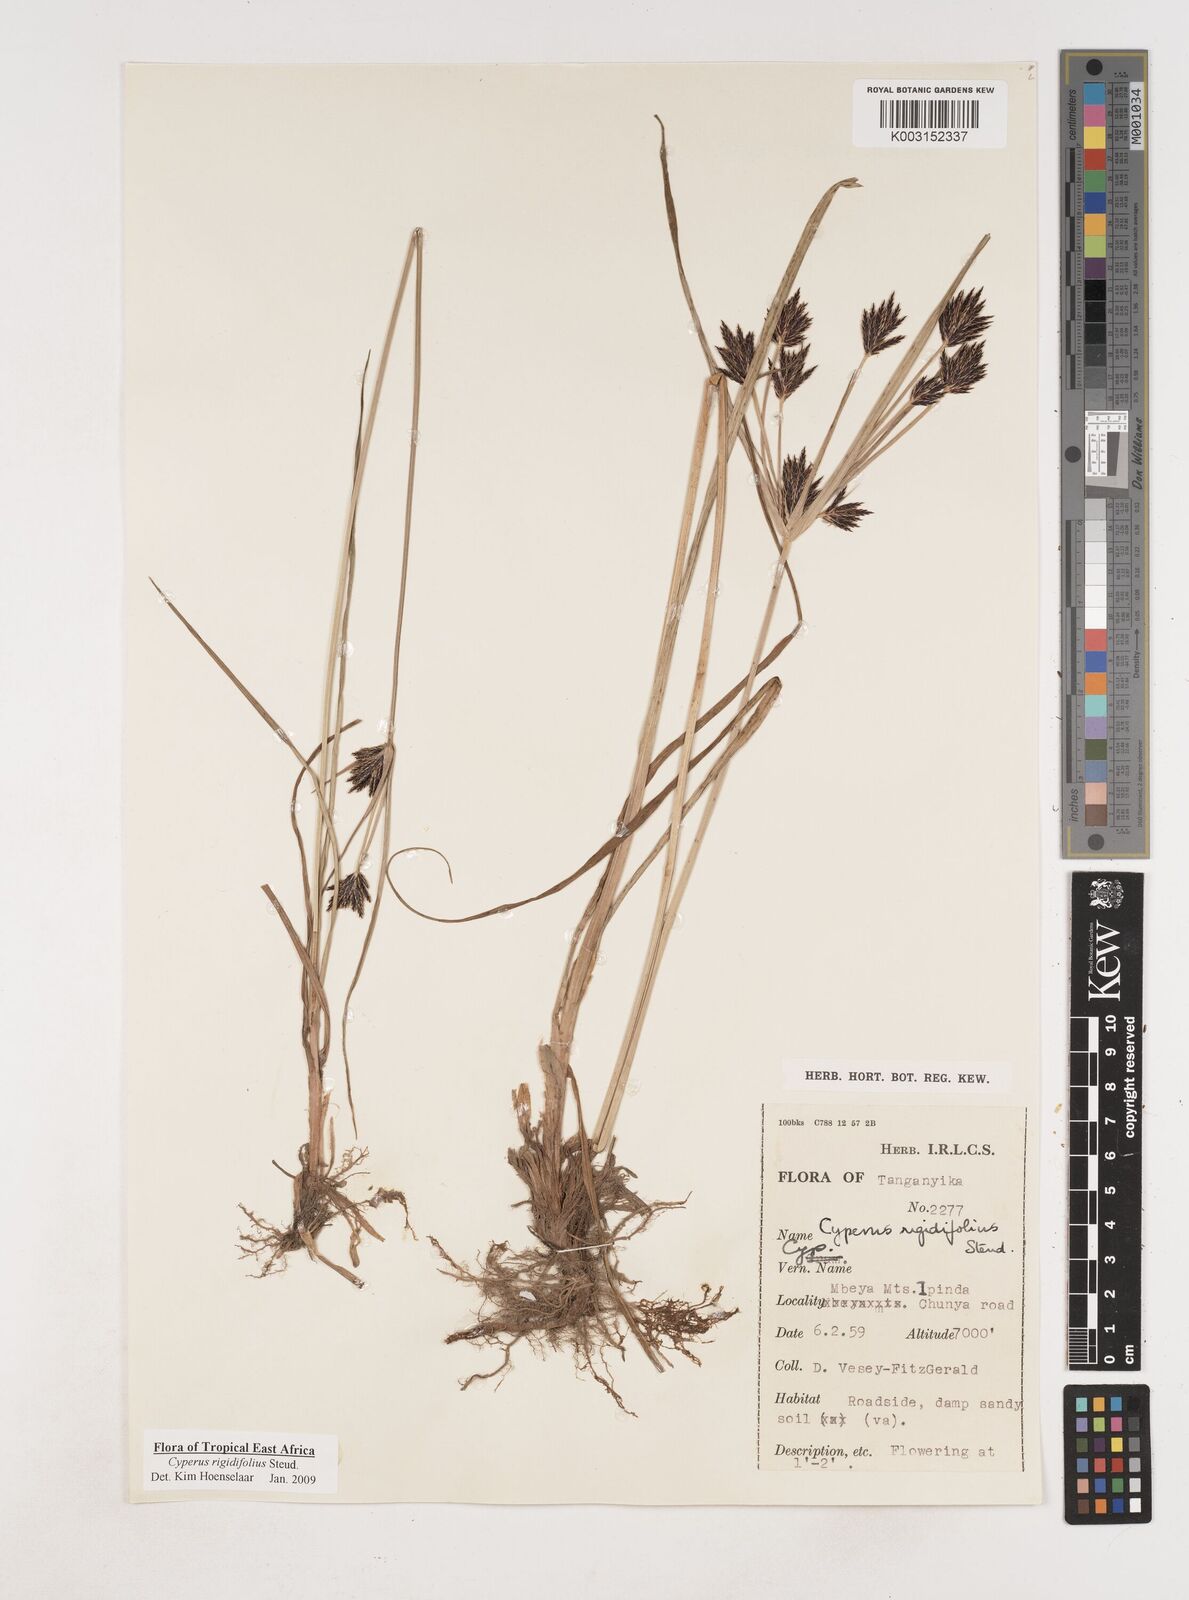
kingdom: Plantae
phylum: Tracheophyta
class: Liliopsida
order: Poales
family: Cyperaceae
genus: Cyperus
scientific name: Cyperus rigidifolius
